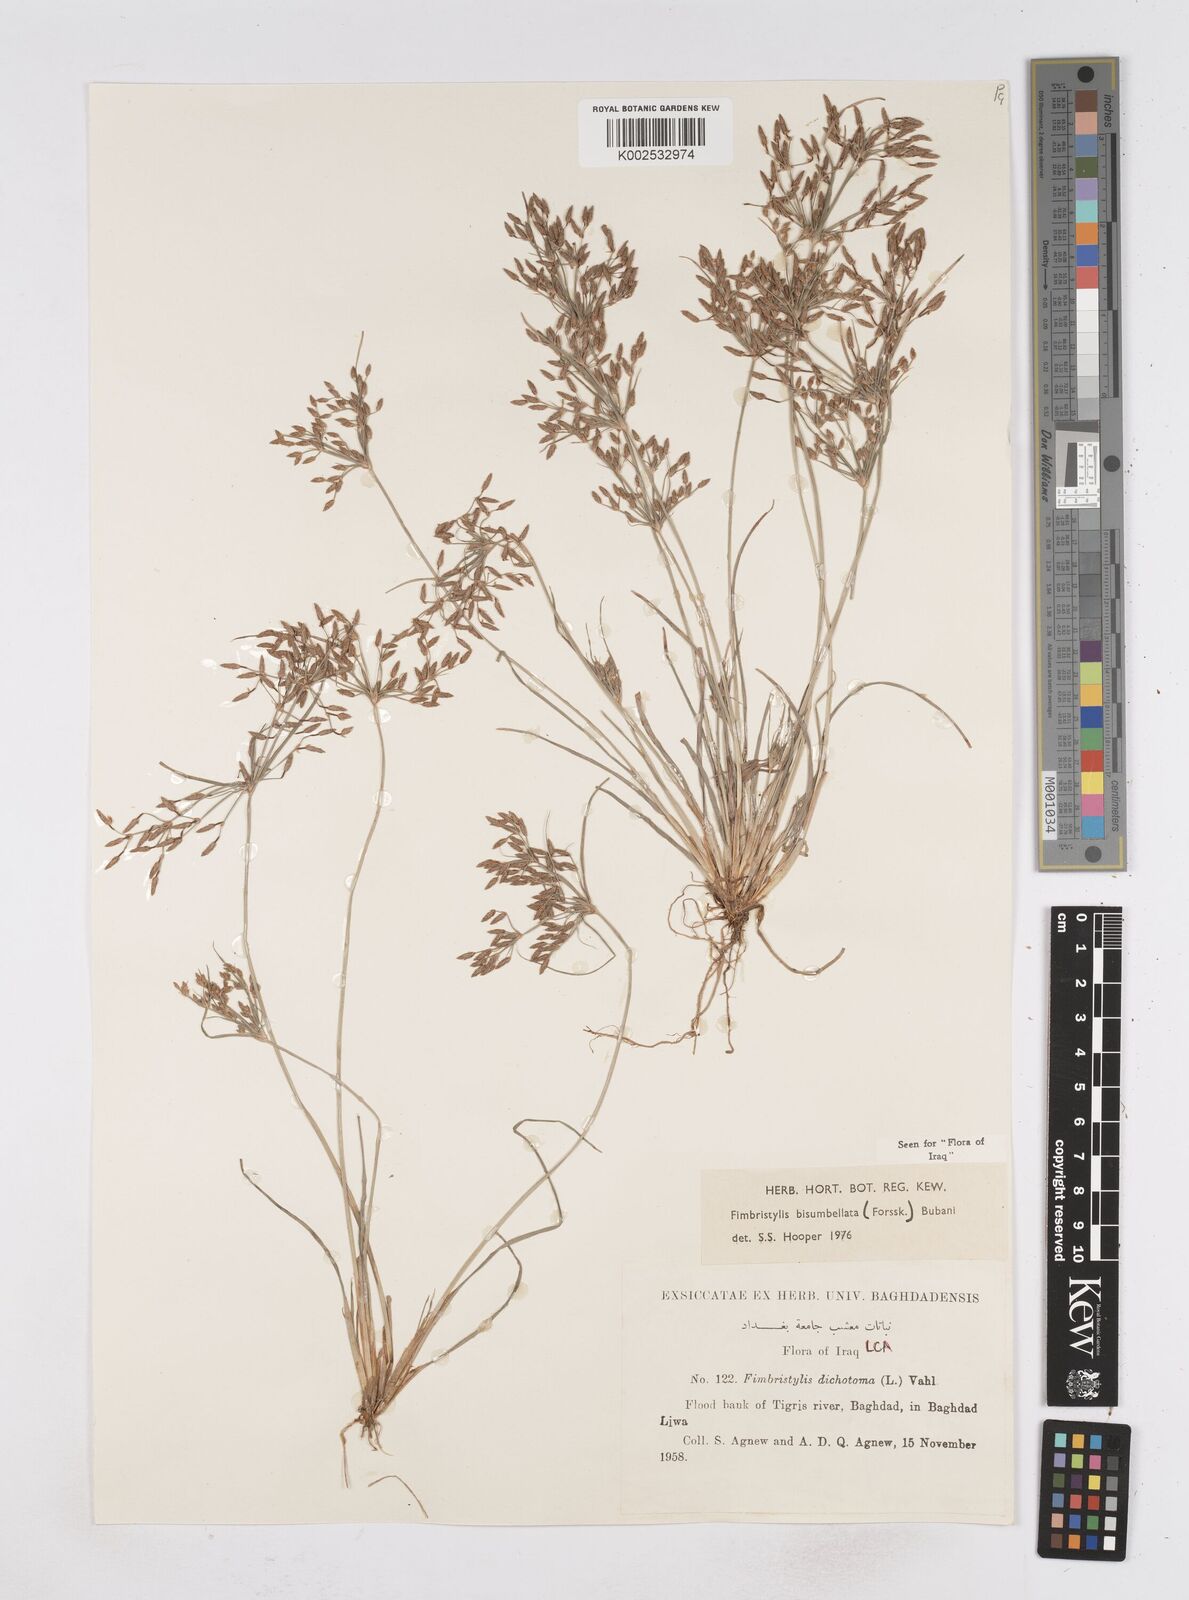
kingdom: Plantae
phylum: Tracheophyta
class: Liliopsida
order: Poales
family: Cyperaceae
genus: Fimbristylis
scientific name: Fimbristylis bisumbellata
